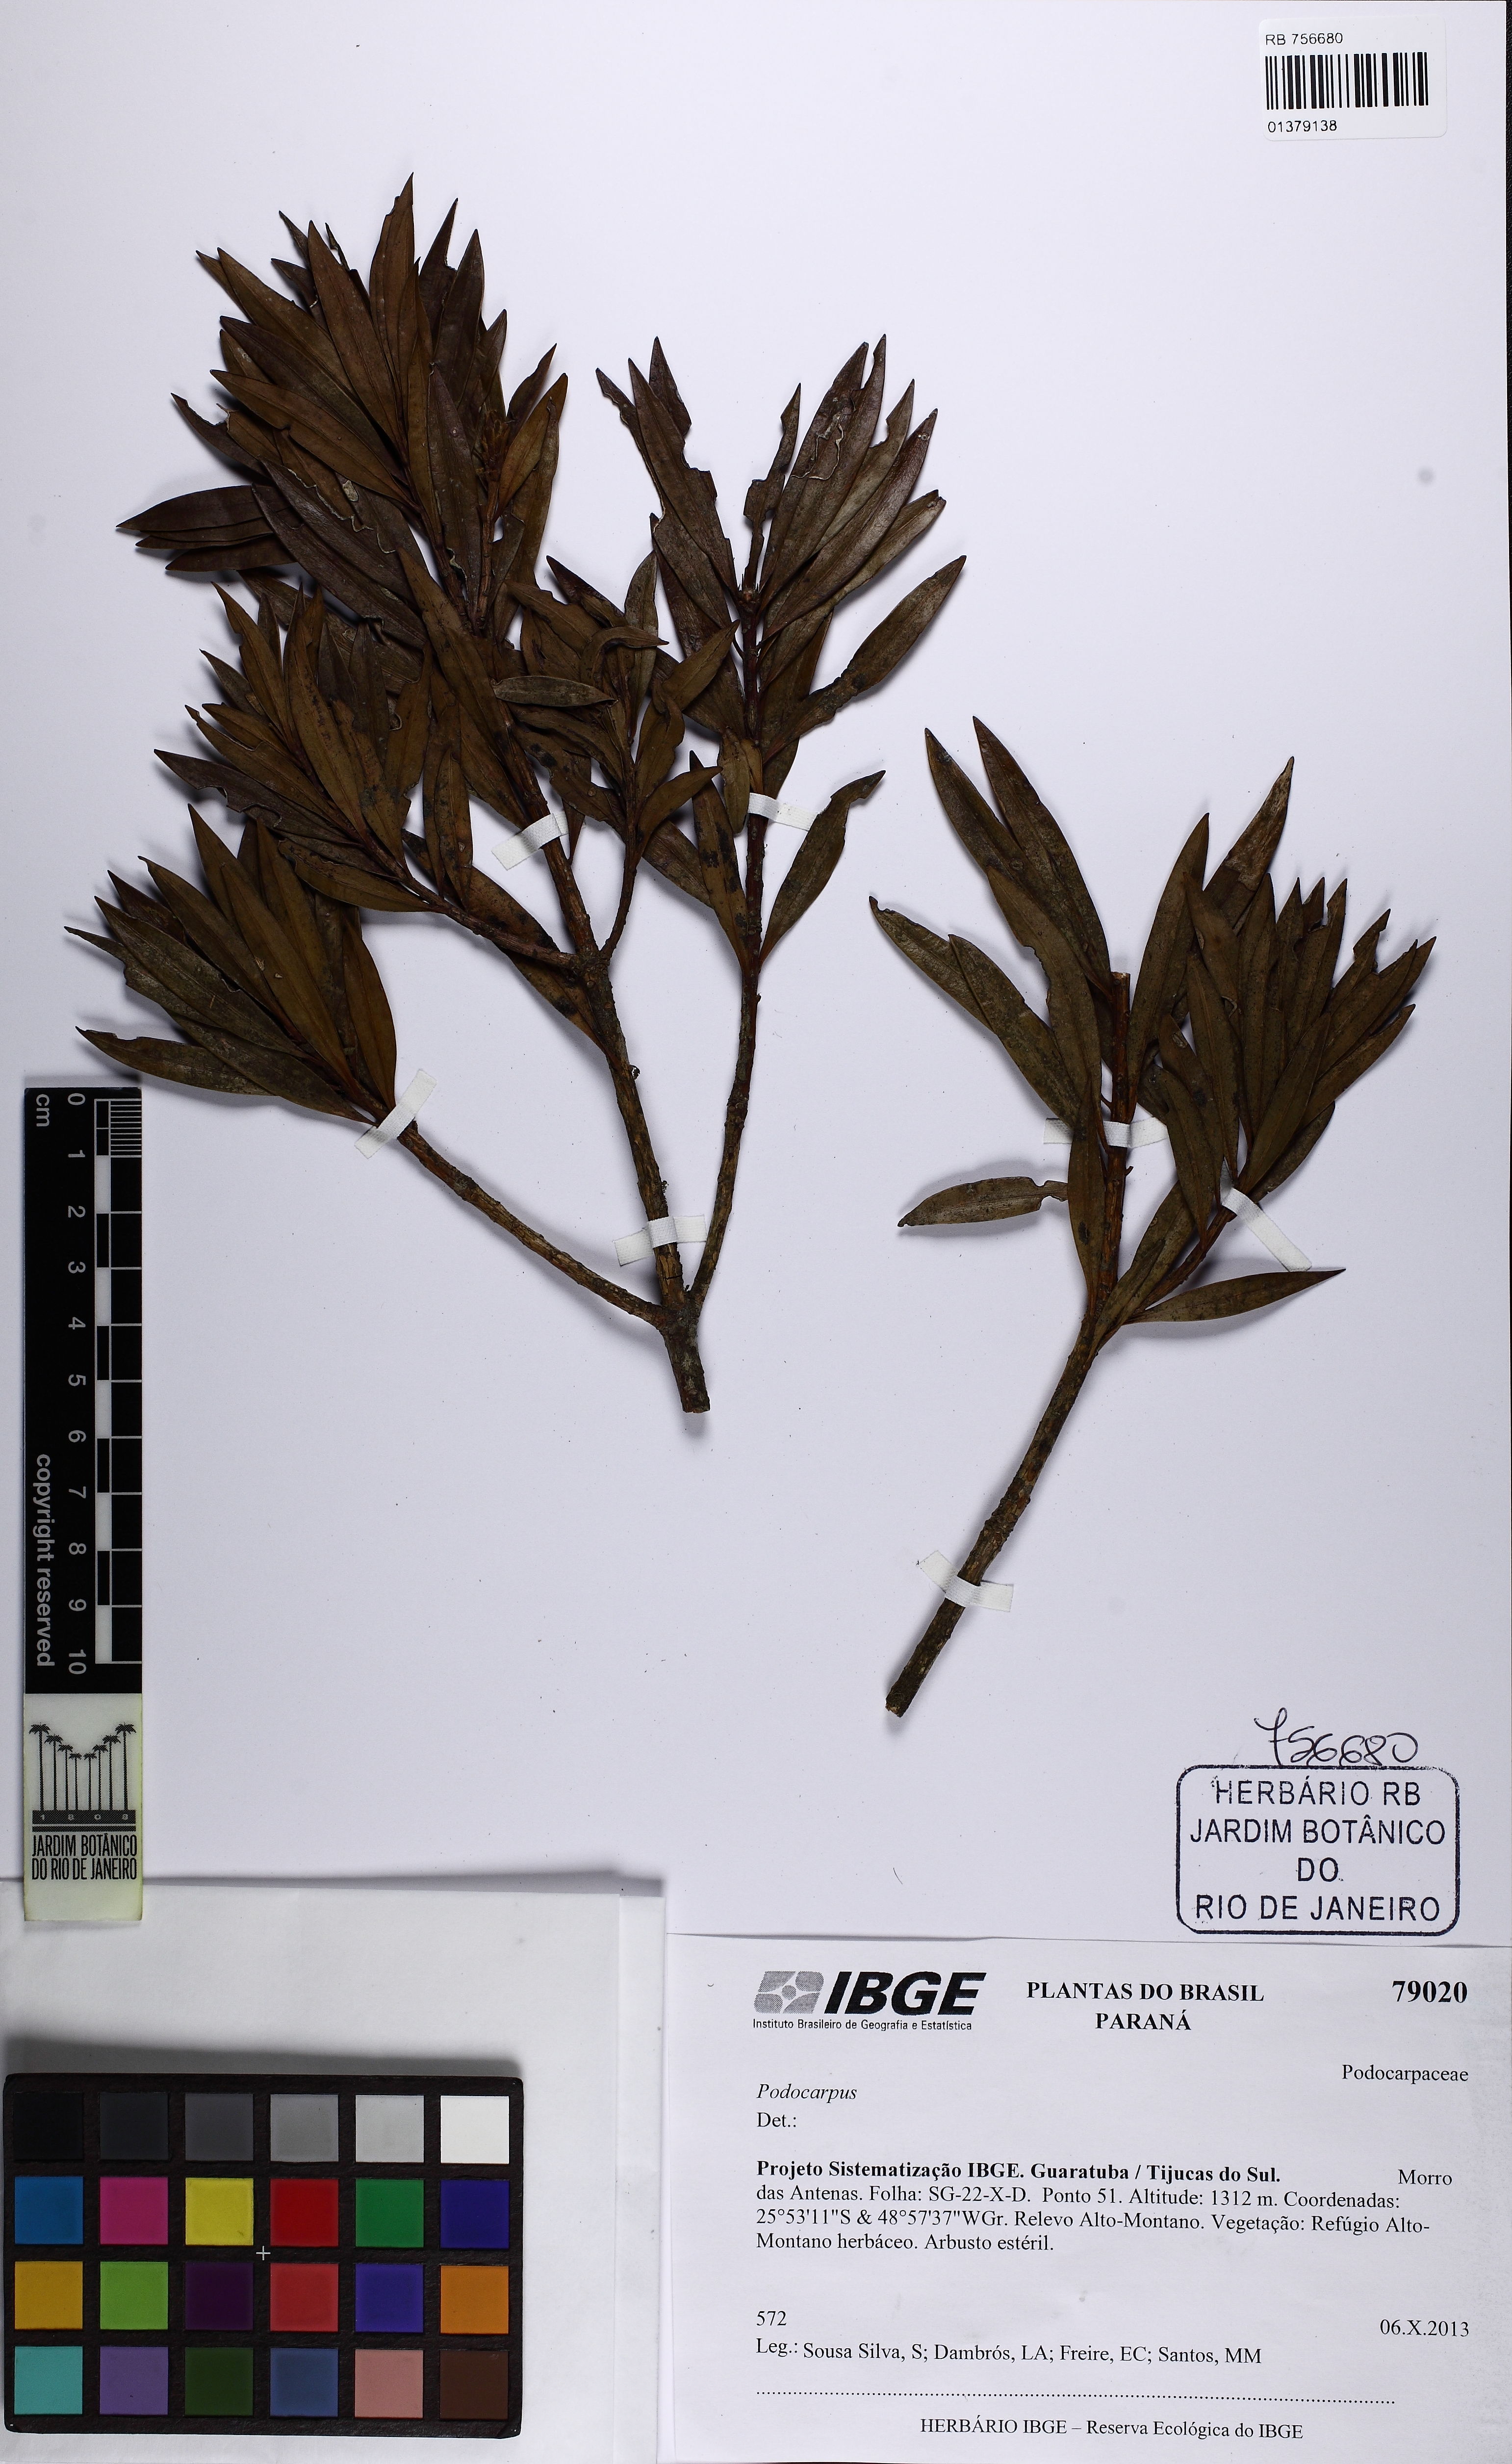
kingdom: Plantae
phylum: Tracheophyta
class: Pinopsida
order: Pinales
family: Podocarpaceae
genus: Podocarpus
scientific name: Podocarpus
